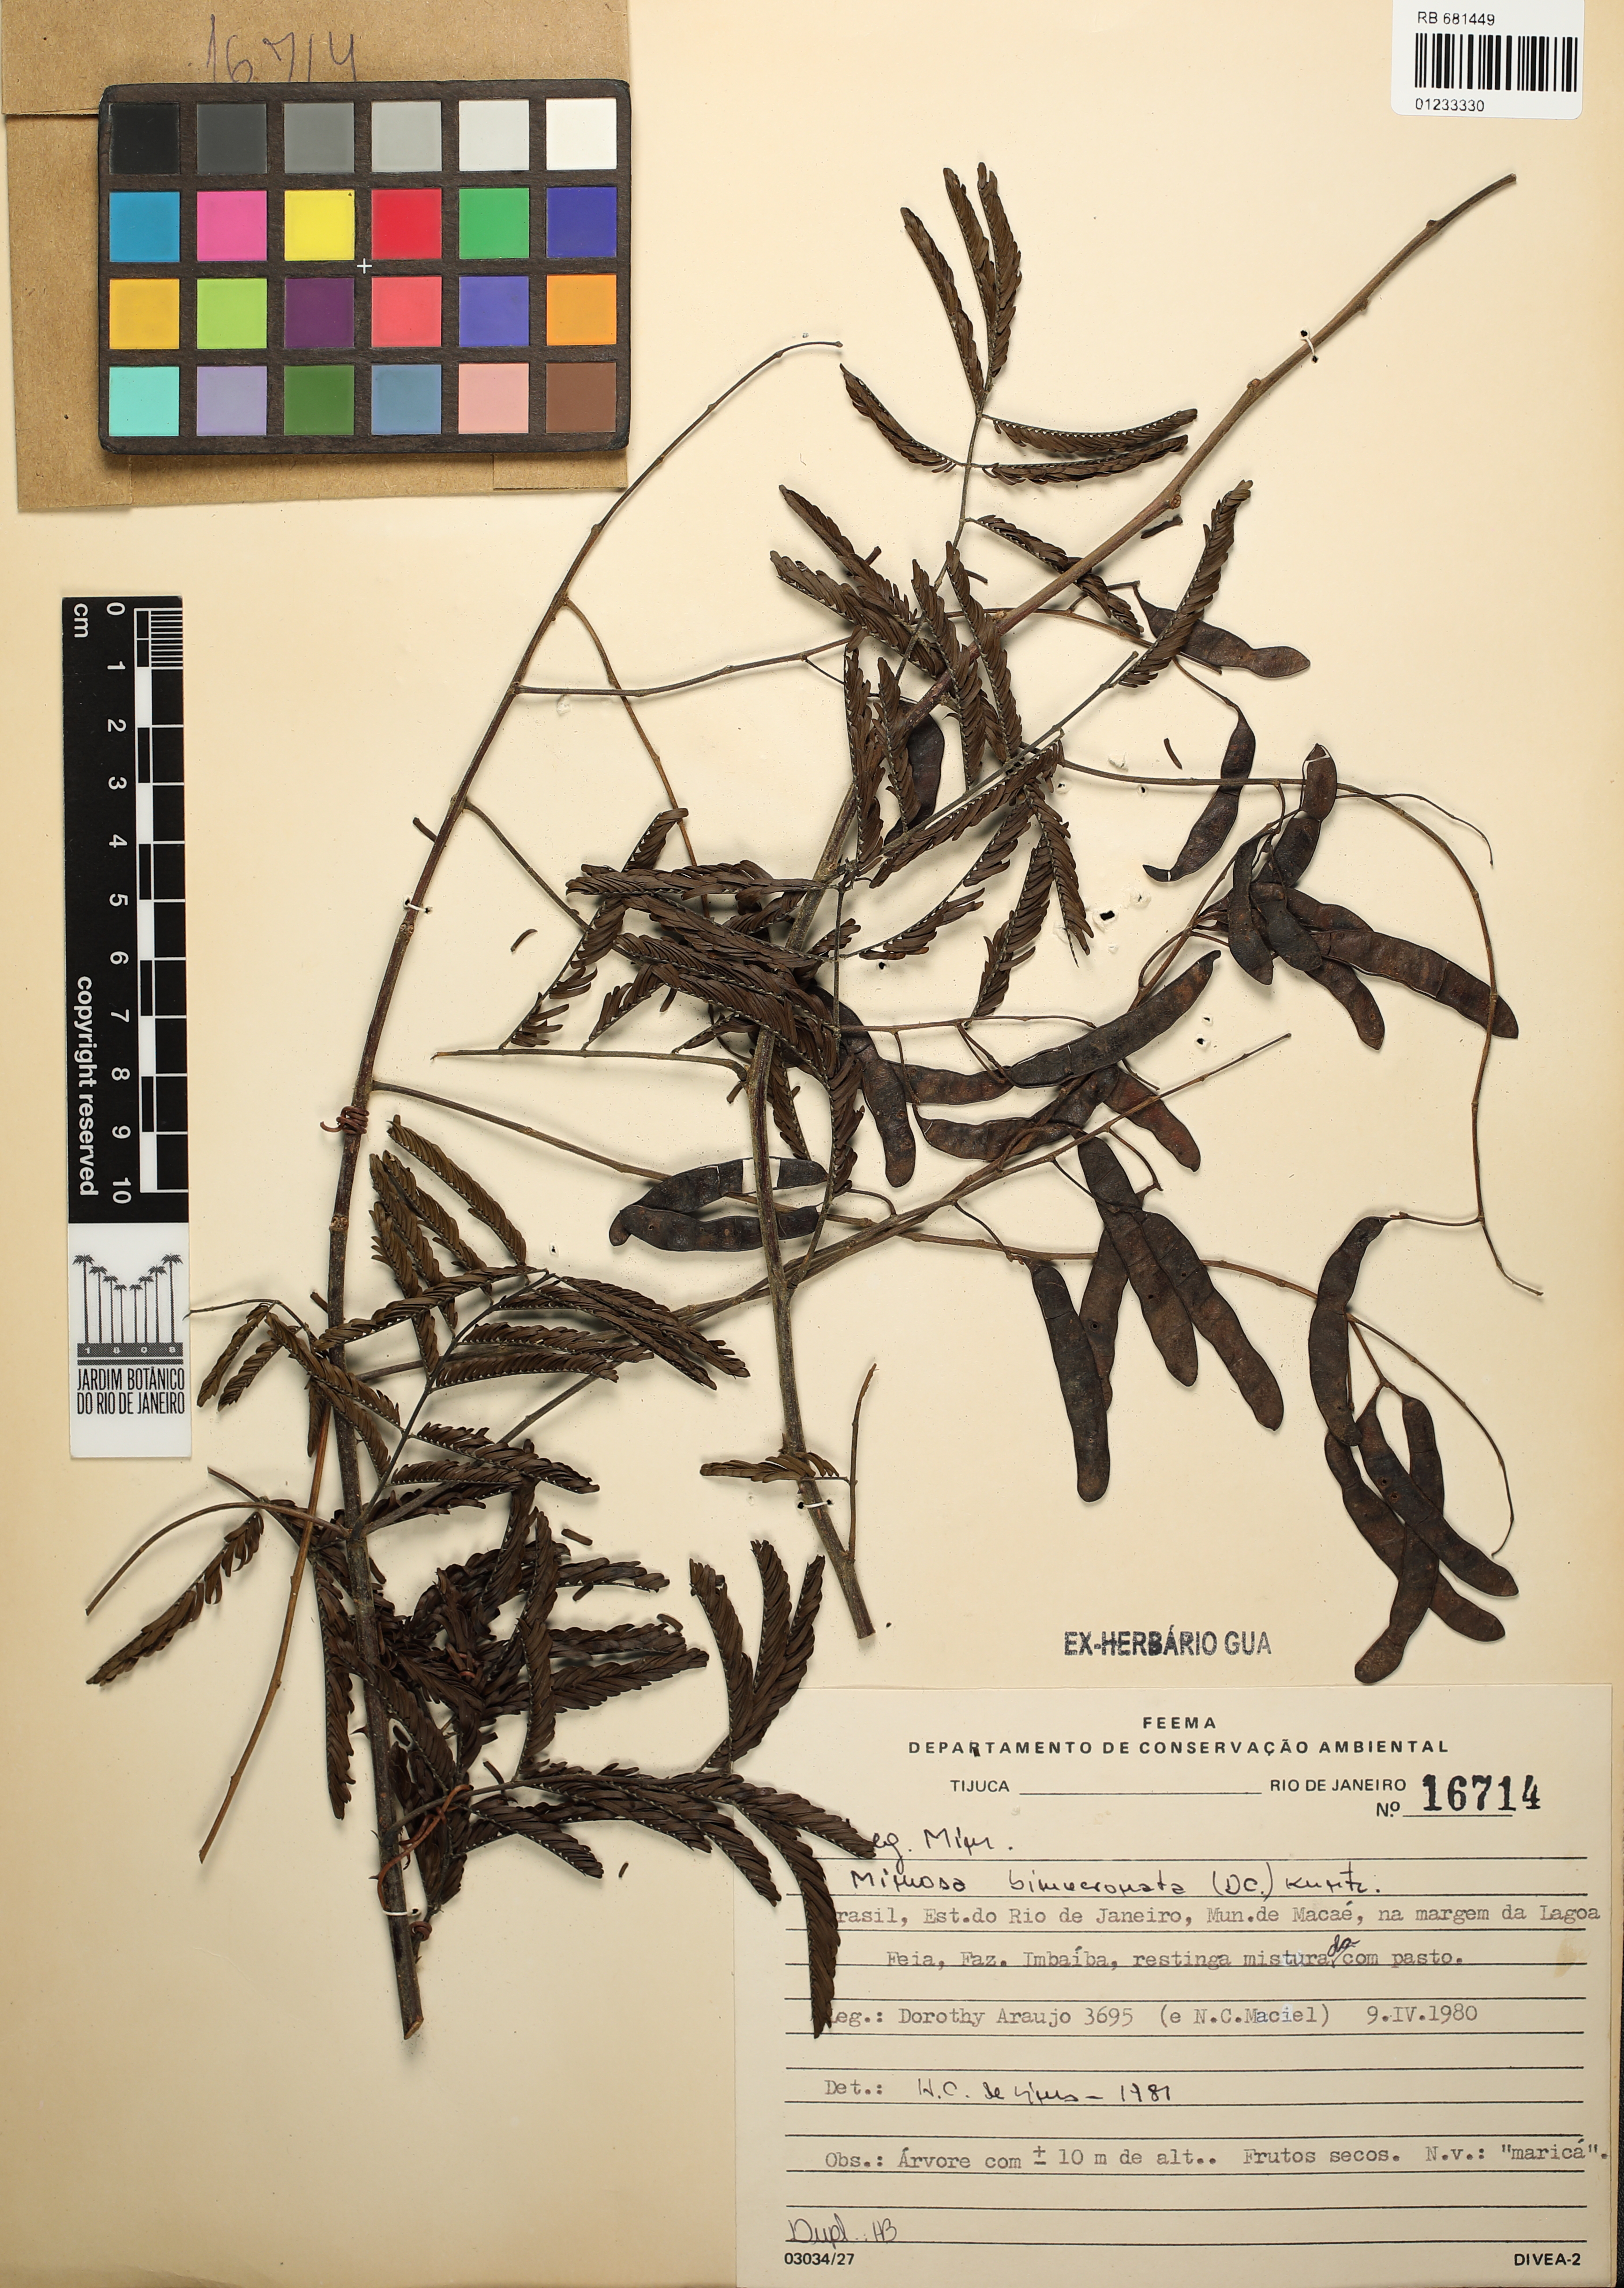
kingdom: Plantae
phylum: Tracheophyta
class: Magnoliopsida
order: Fabales
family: Fabaceae
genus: Mimosa
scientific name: Mimosa bimucronata
